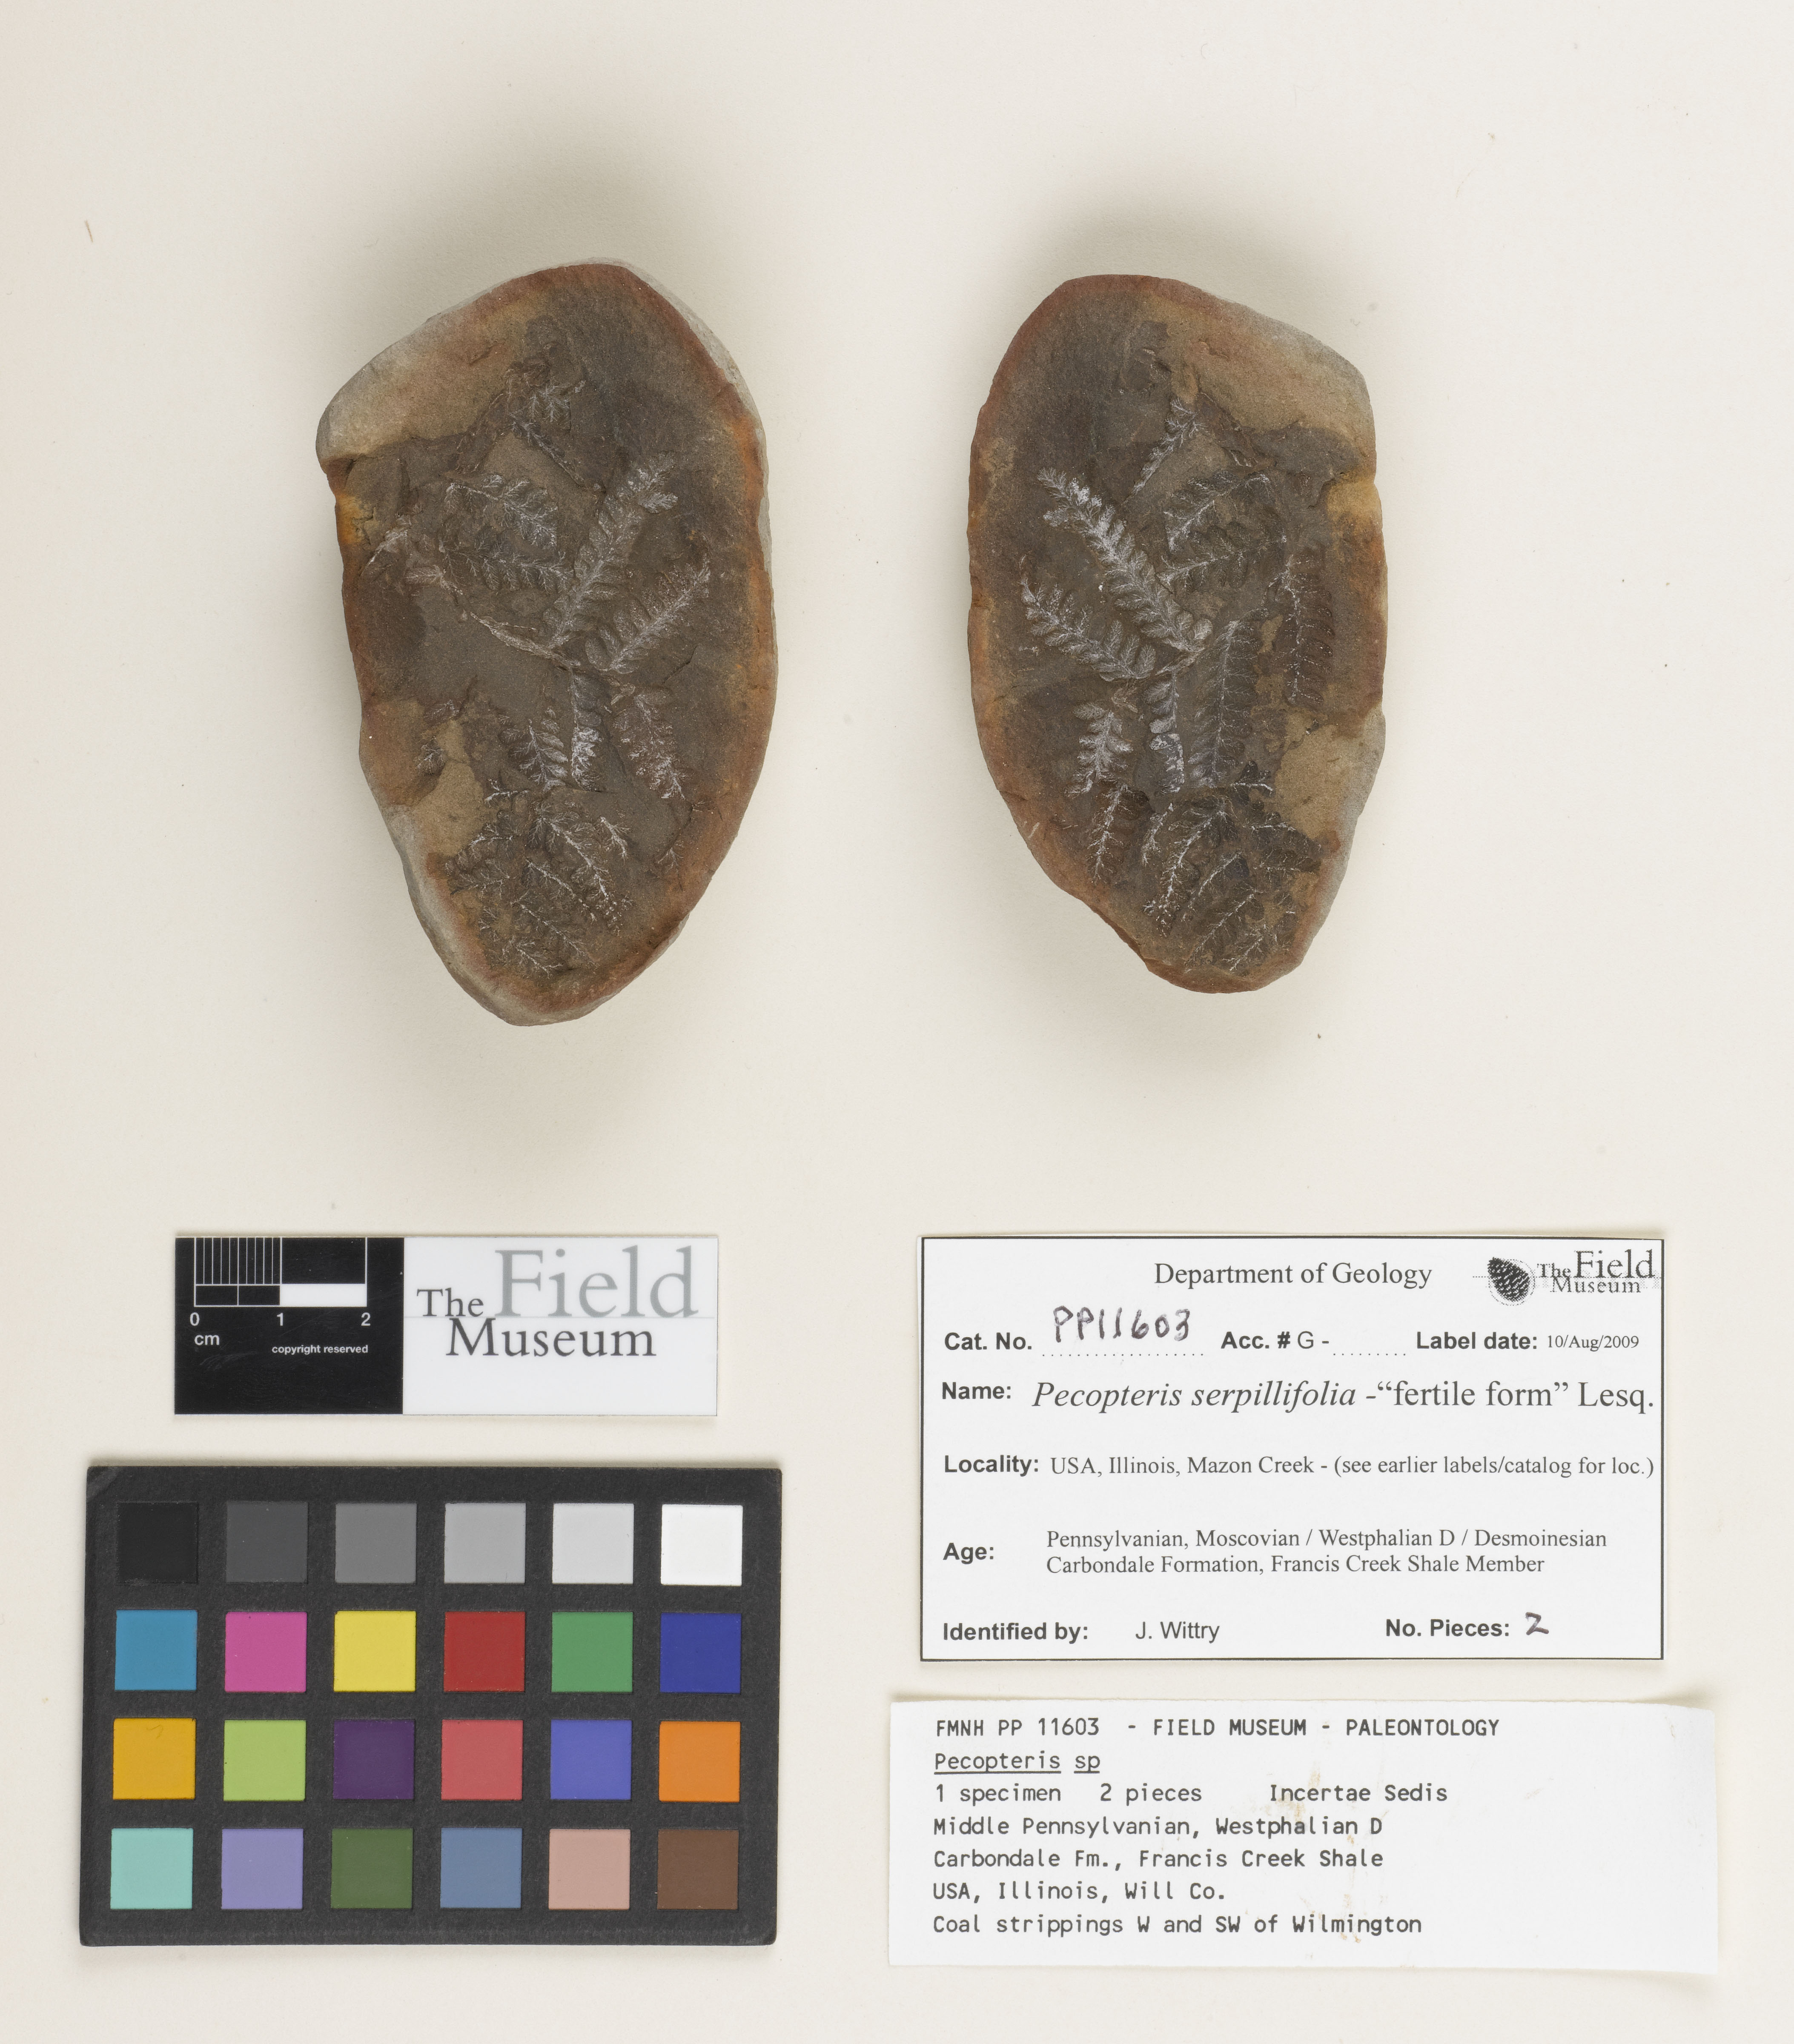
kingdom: Plantae
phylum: Tracheophyta
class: Polypodiopsida
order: Marattiales
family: Asterothecaceae
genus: Pecopteris
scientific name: Pecopteris
